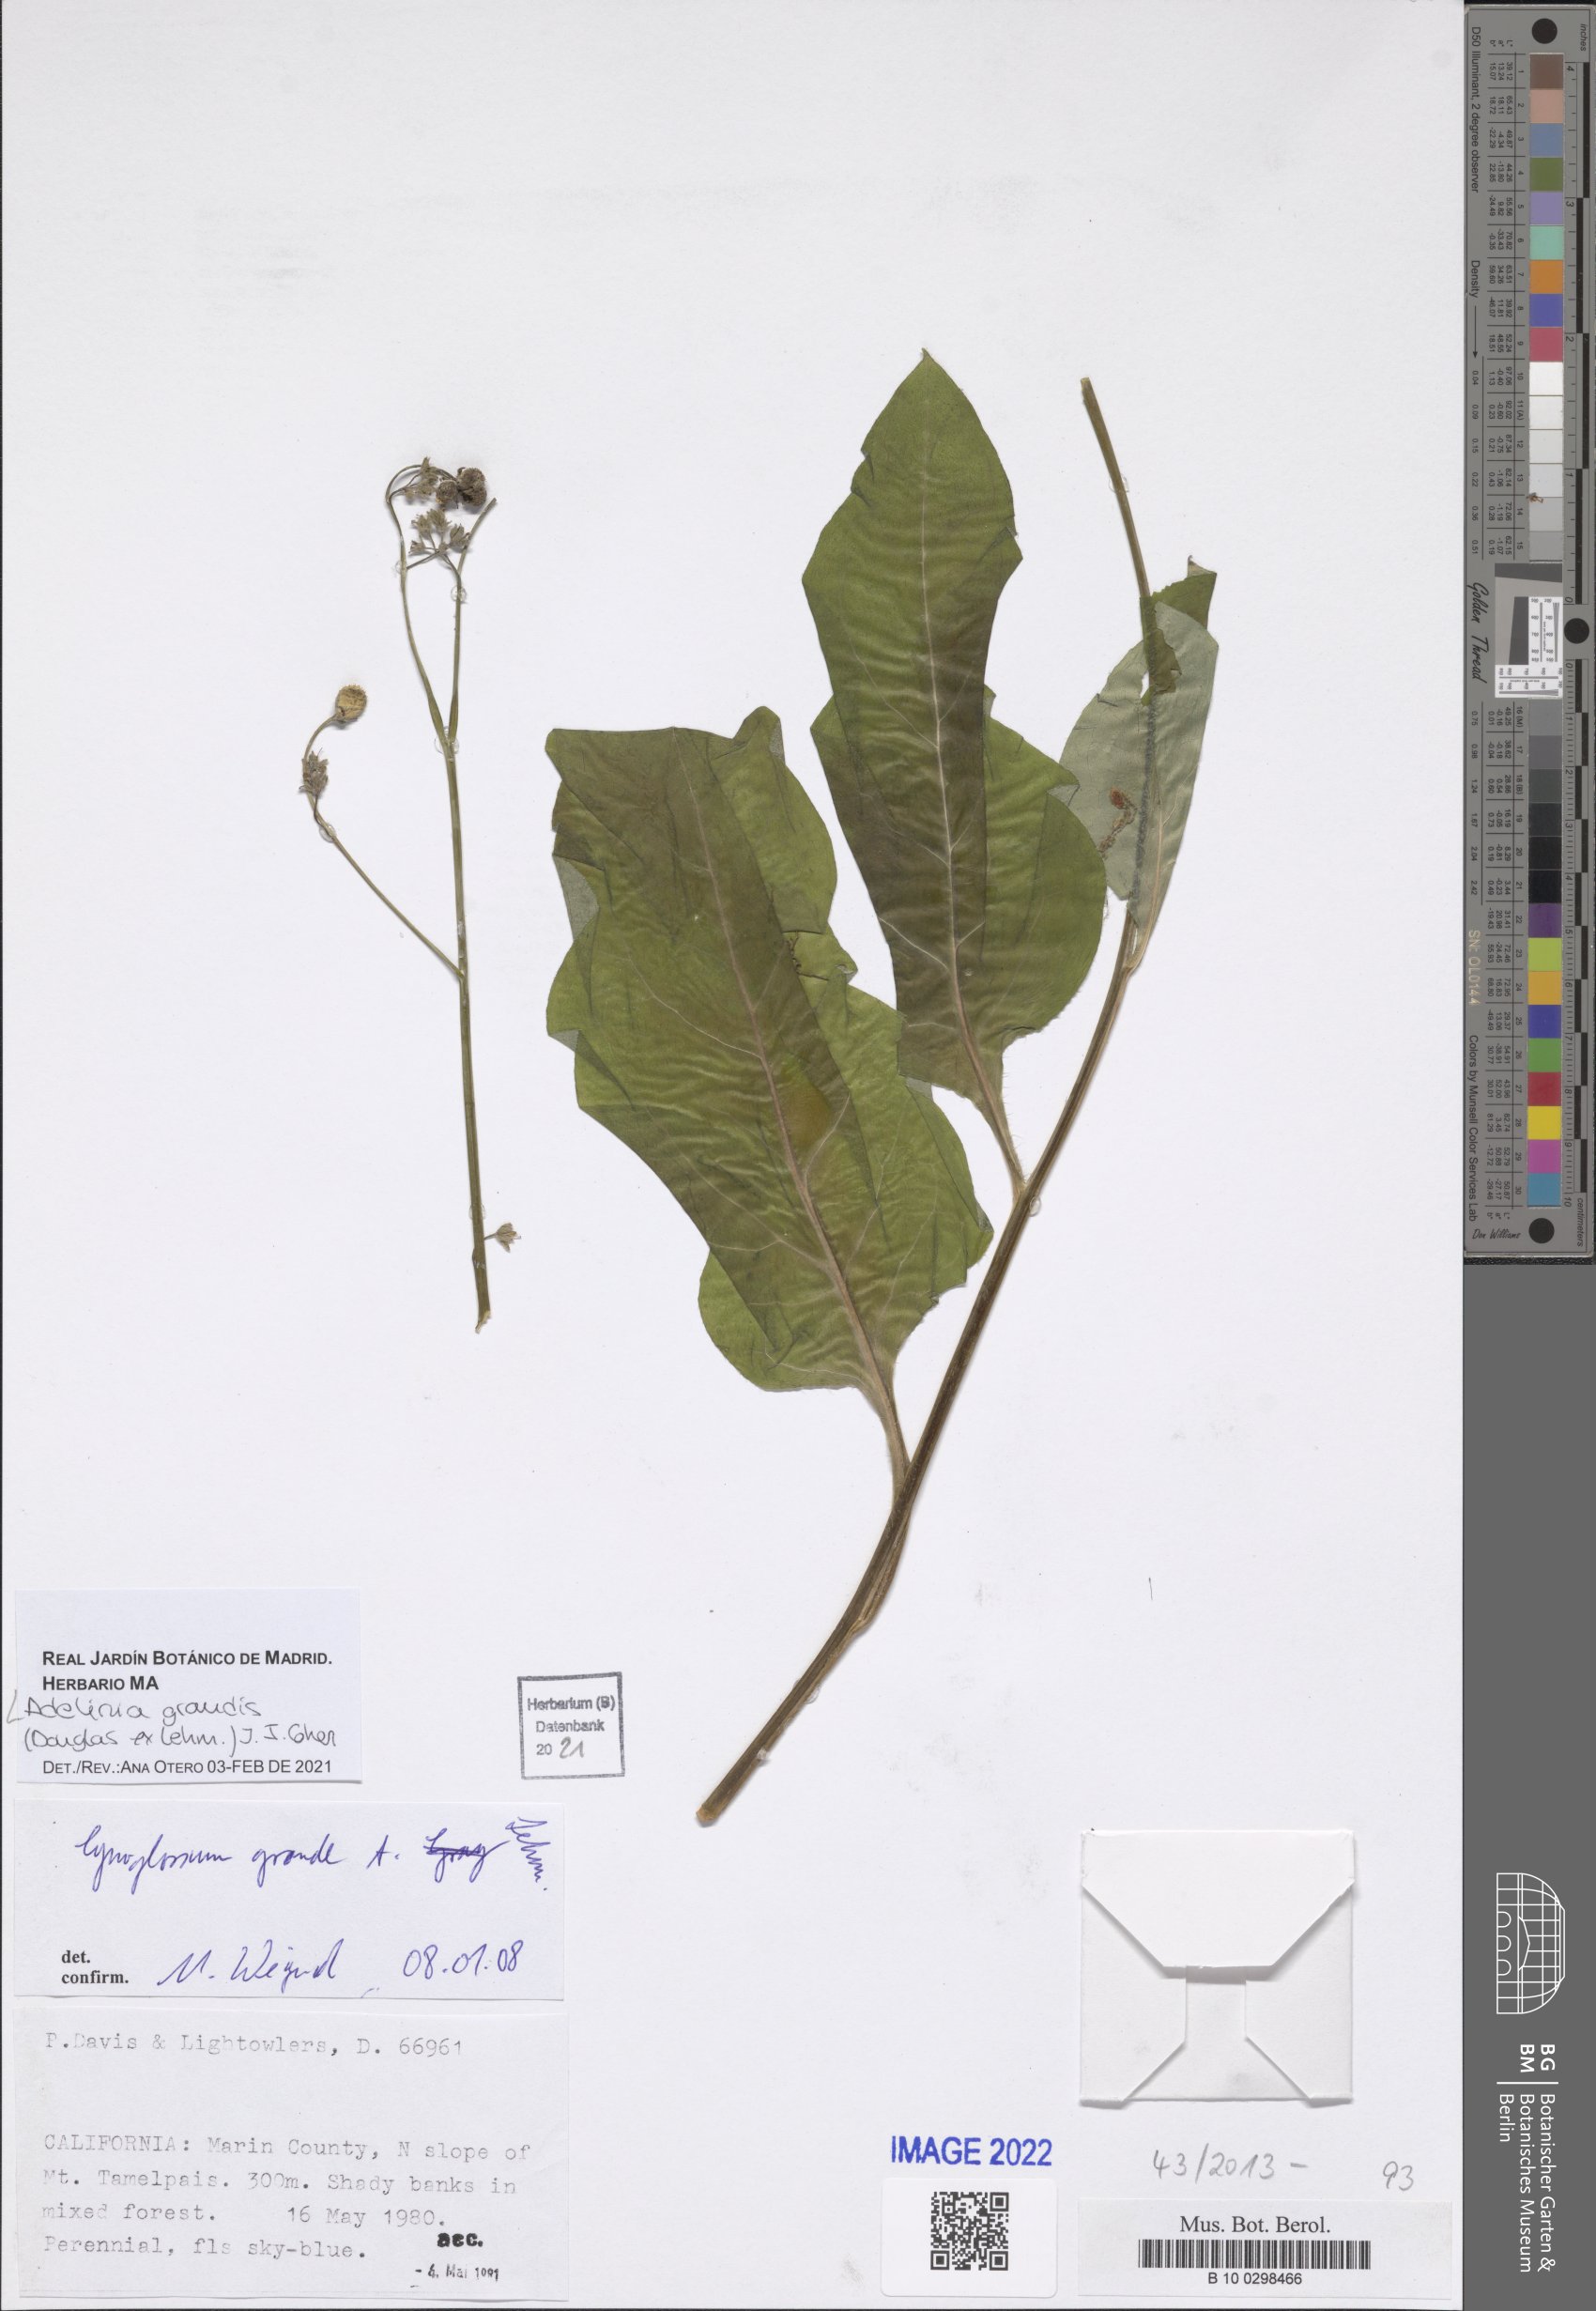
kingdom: Plantae
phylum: Tracheophyta
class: Magnoliopsida
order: Boraginales
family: Boraginaceae
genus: Adelinia
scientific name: Adelinia grande
